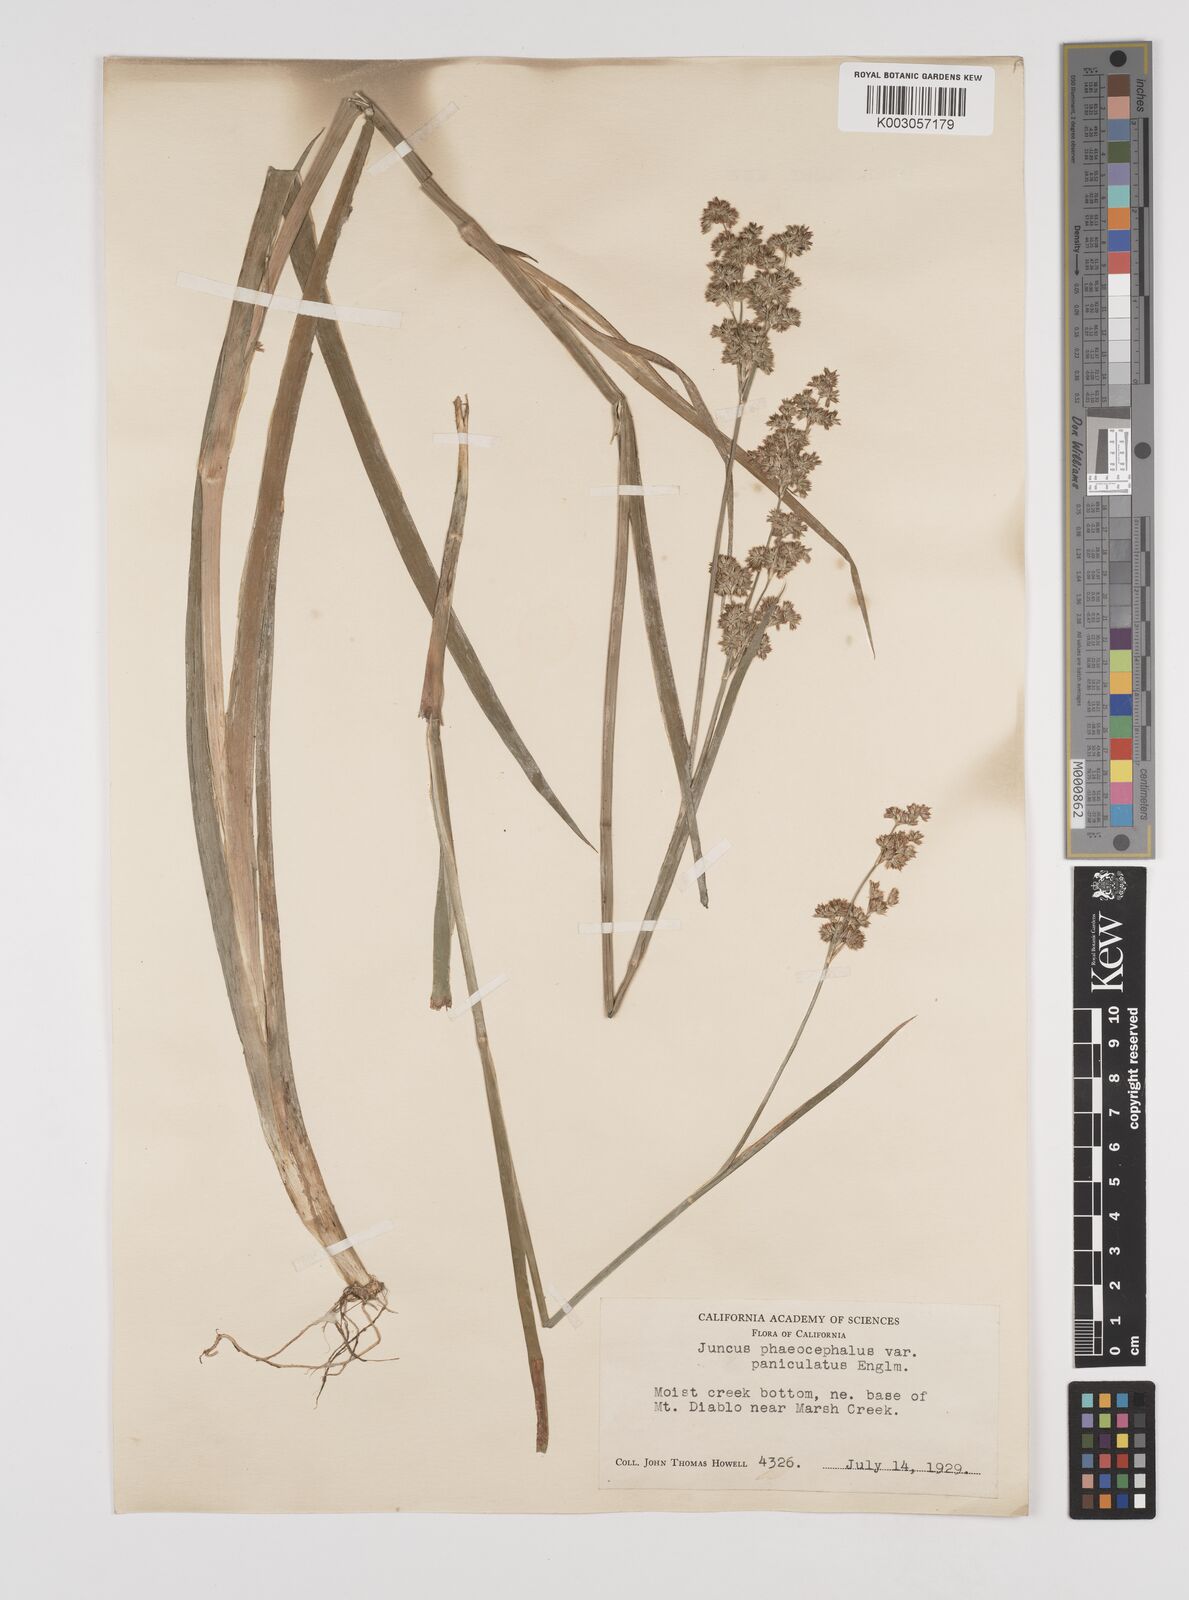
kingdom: Plantae
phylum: Tracheophyta
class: Liliopsida
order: Poales
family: Juncaceae
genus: Juncus
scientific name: Juncus phaeocephalus
